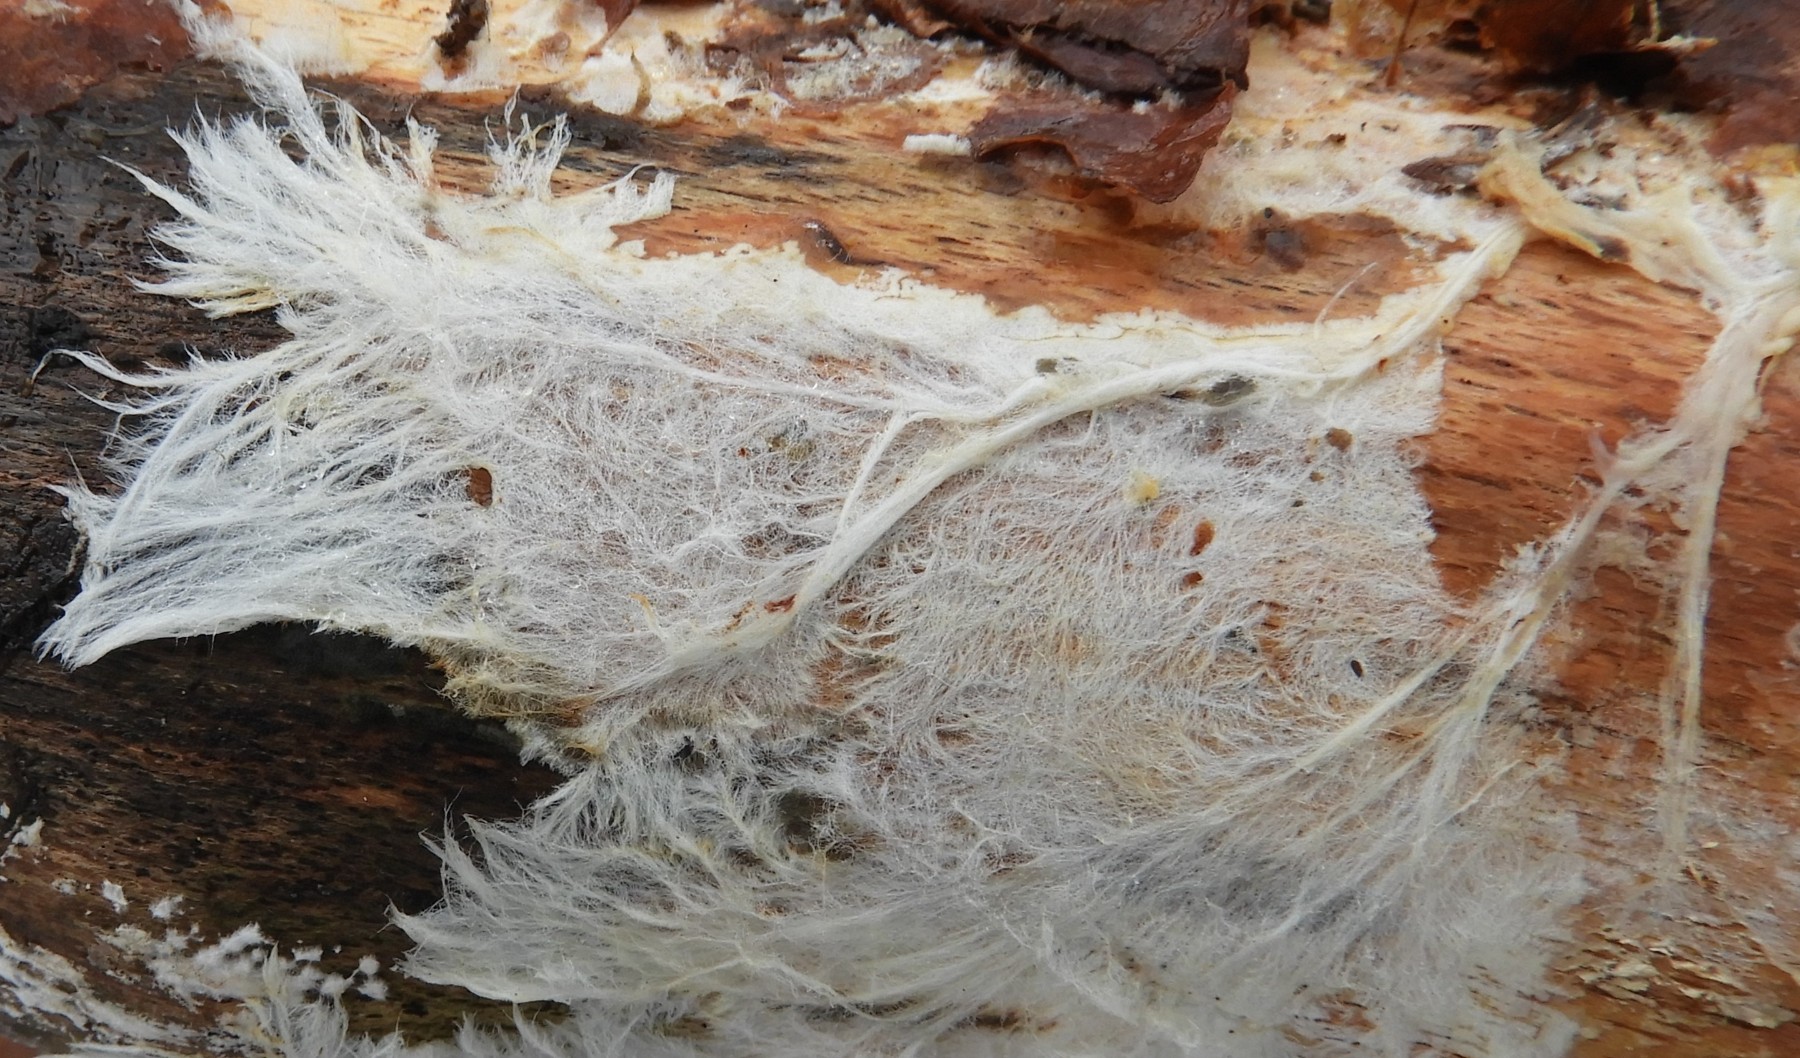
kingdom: Fungi
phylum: Basidiomycota
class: Agaricomycetes
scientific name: Agaricomycetes
